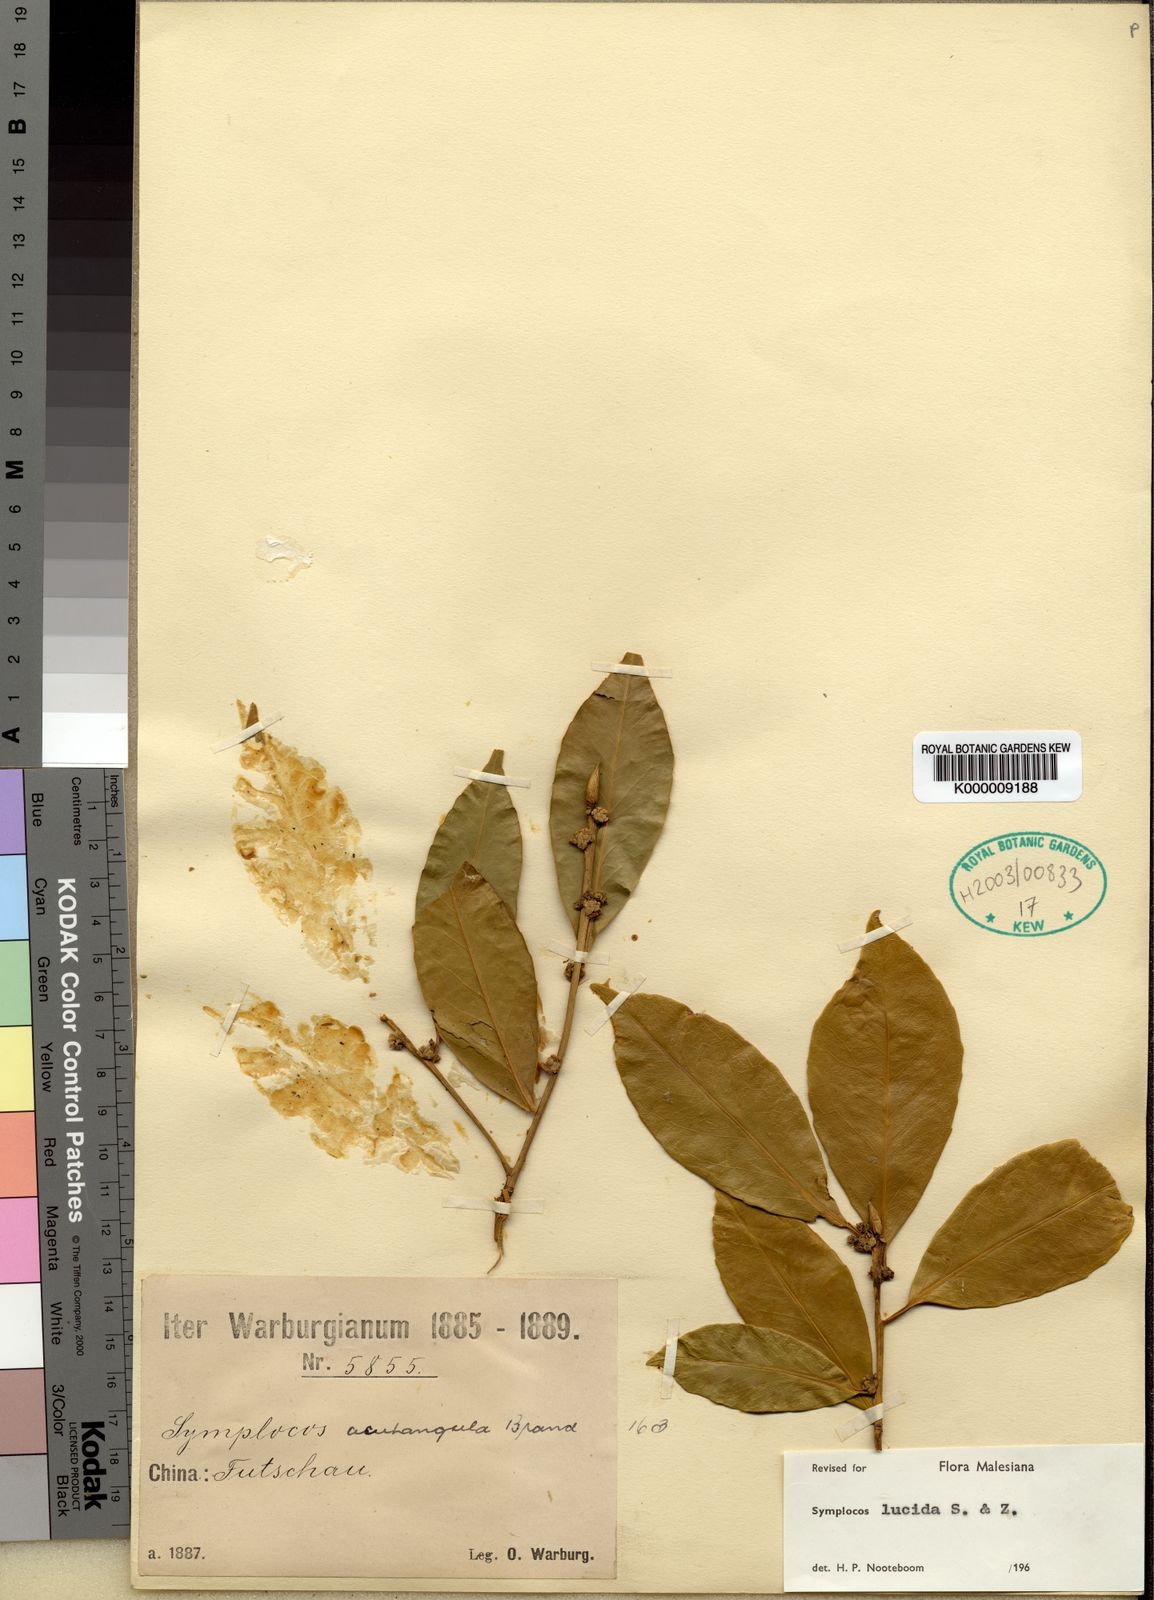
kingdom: Plantae
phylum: Tracheophyta
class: Magnoliopsida
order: Ericales
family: Symplocaceae
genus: Symplocos
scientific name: Symplocos
